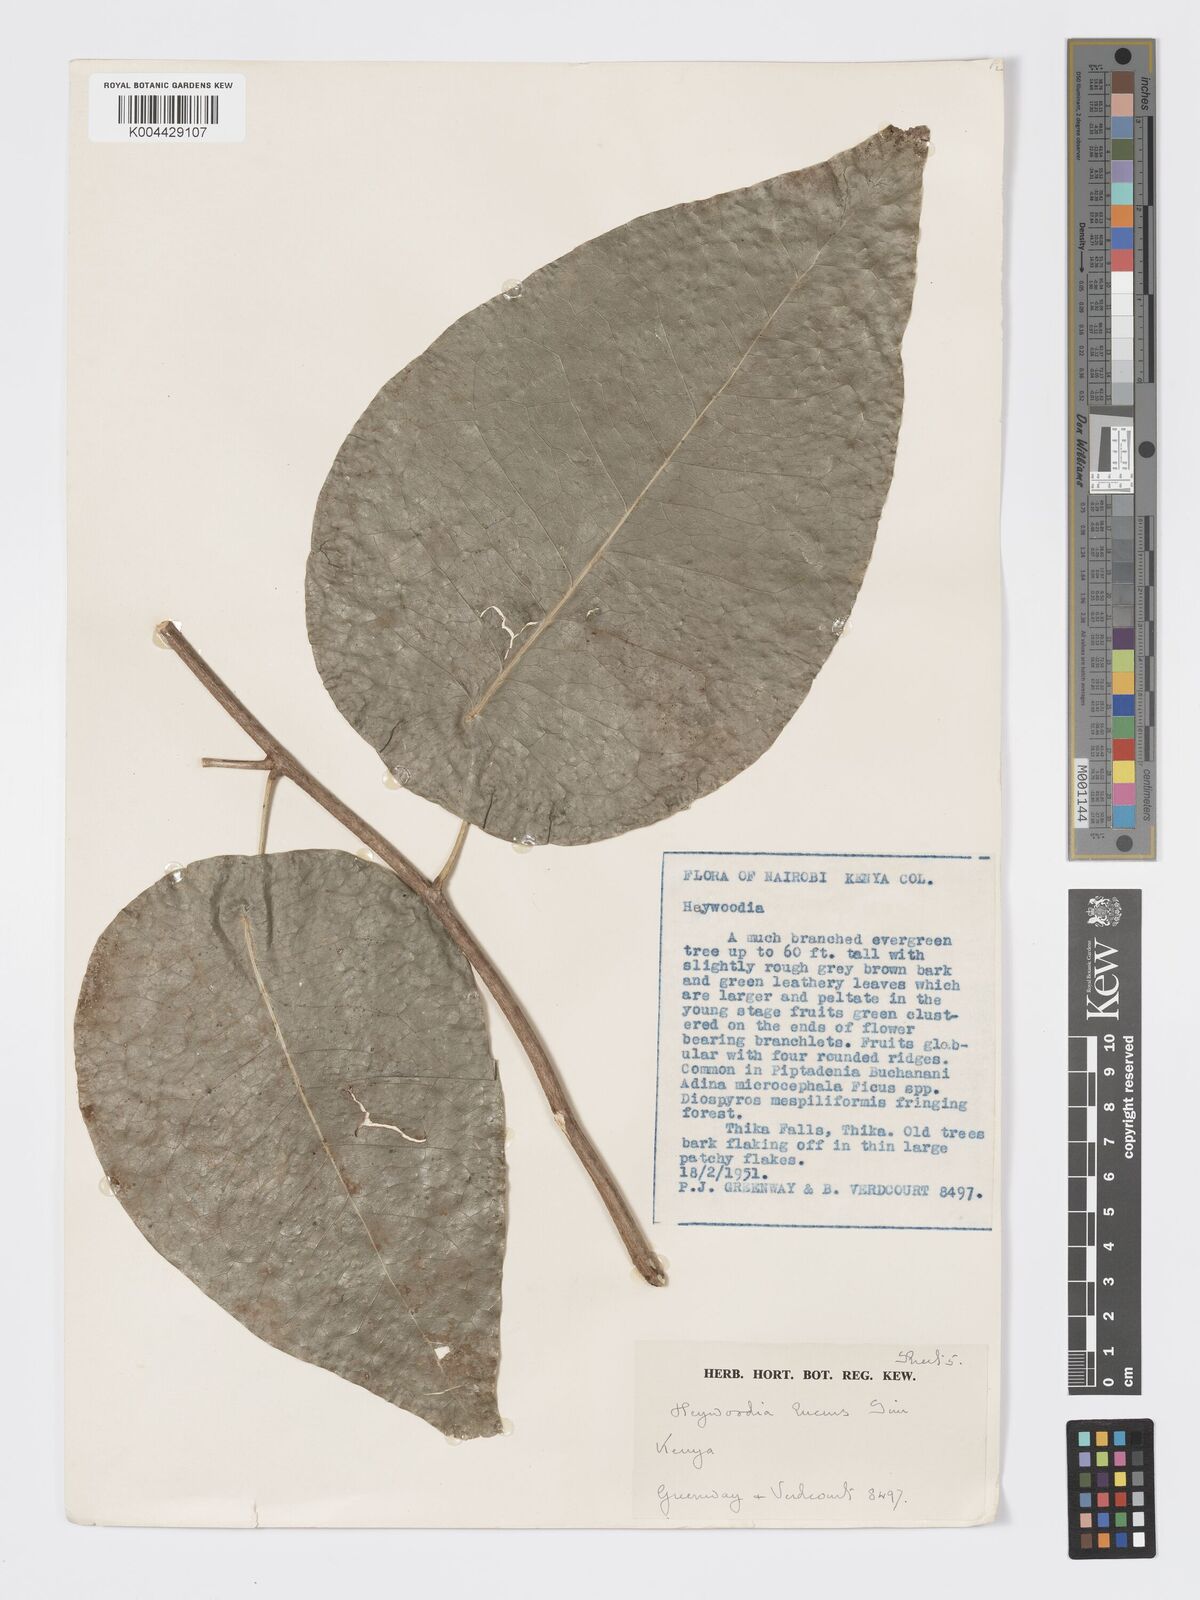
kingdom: Plantae
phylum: Tracheophyta
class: Magnoliopsida
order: Malpighiales
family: Phyllanthaceae
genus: Heywoodia
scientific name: Heywoodia lucens
